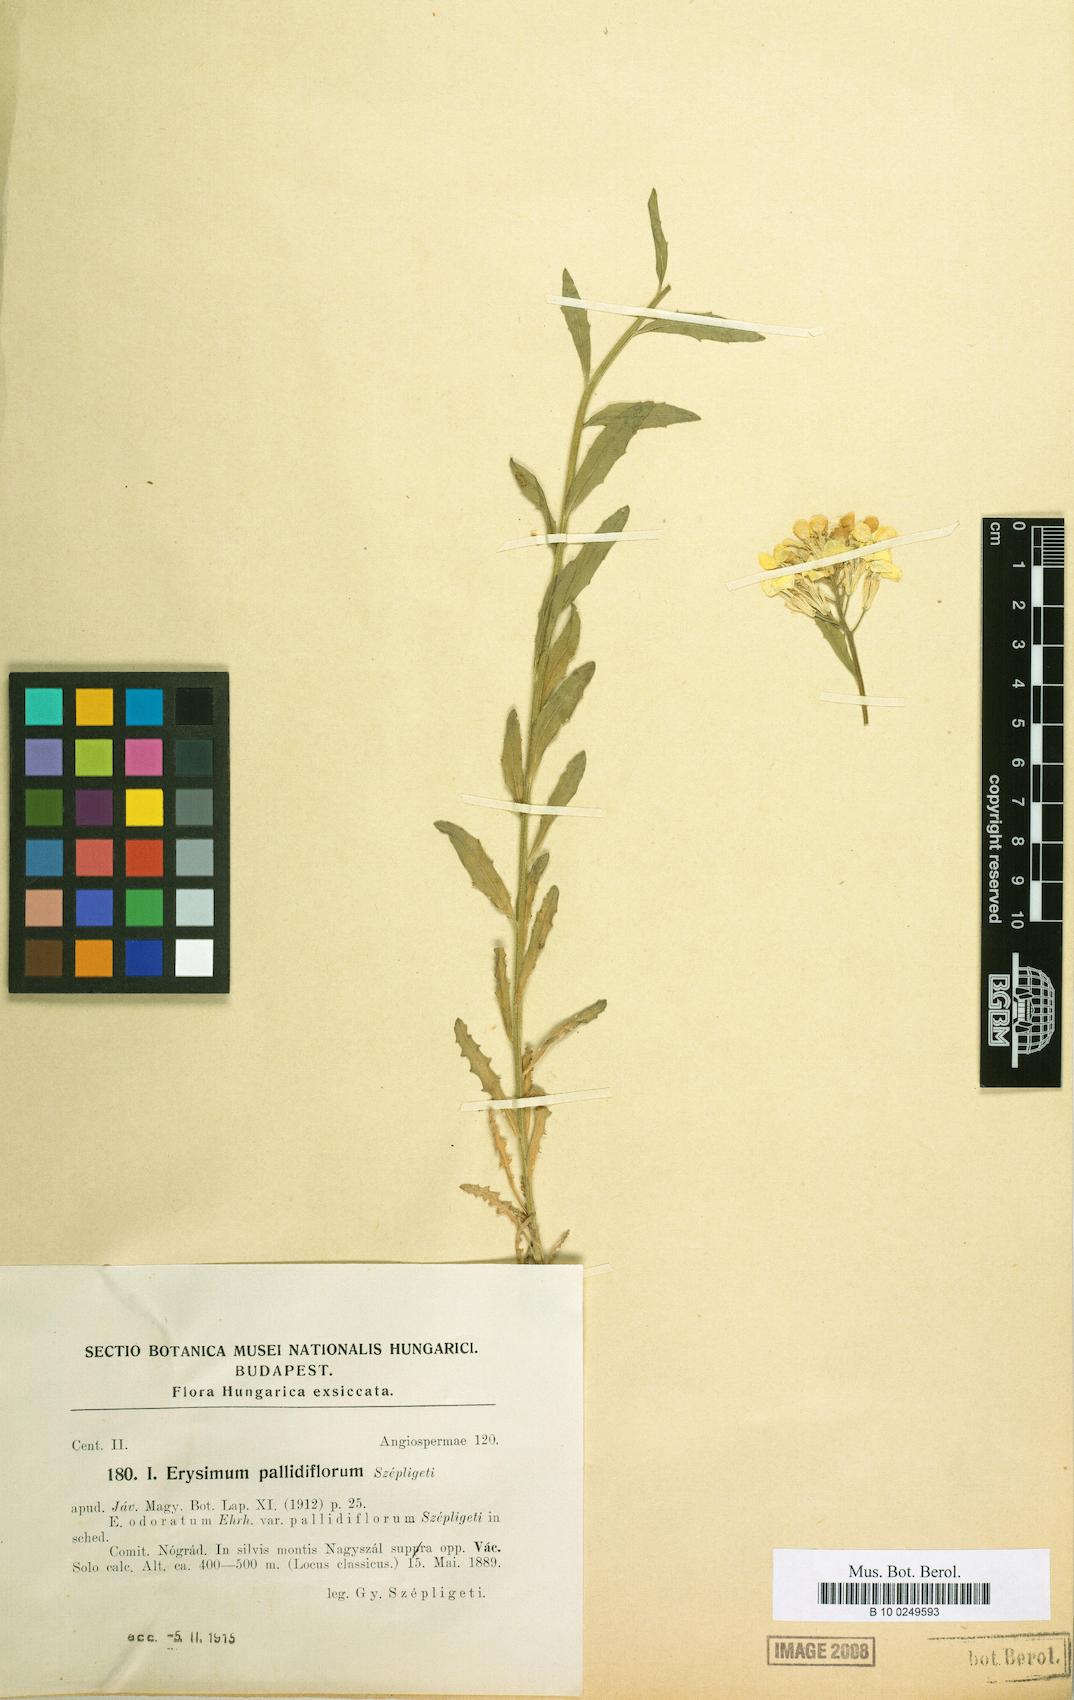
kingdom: Plantae
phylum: Tracheophyta
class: Magnoliopsida
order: Brassicales
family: Brassicaceae
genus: Erysimum
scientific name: Erysimum pallidiflorum
